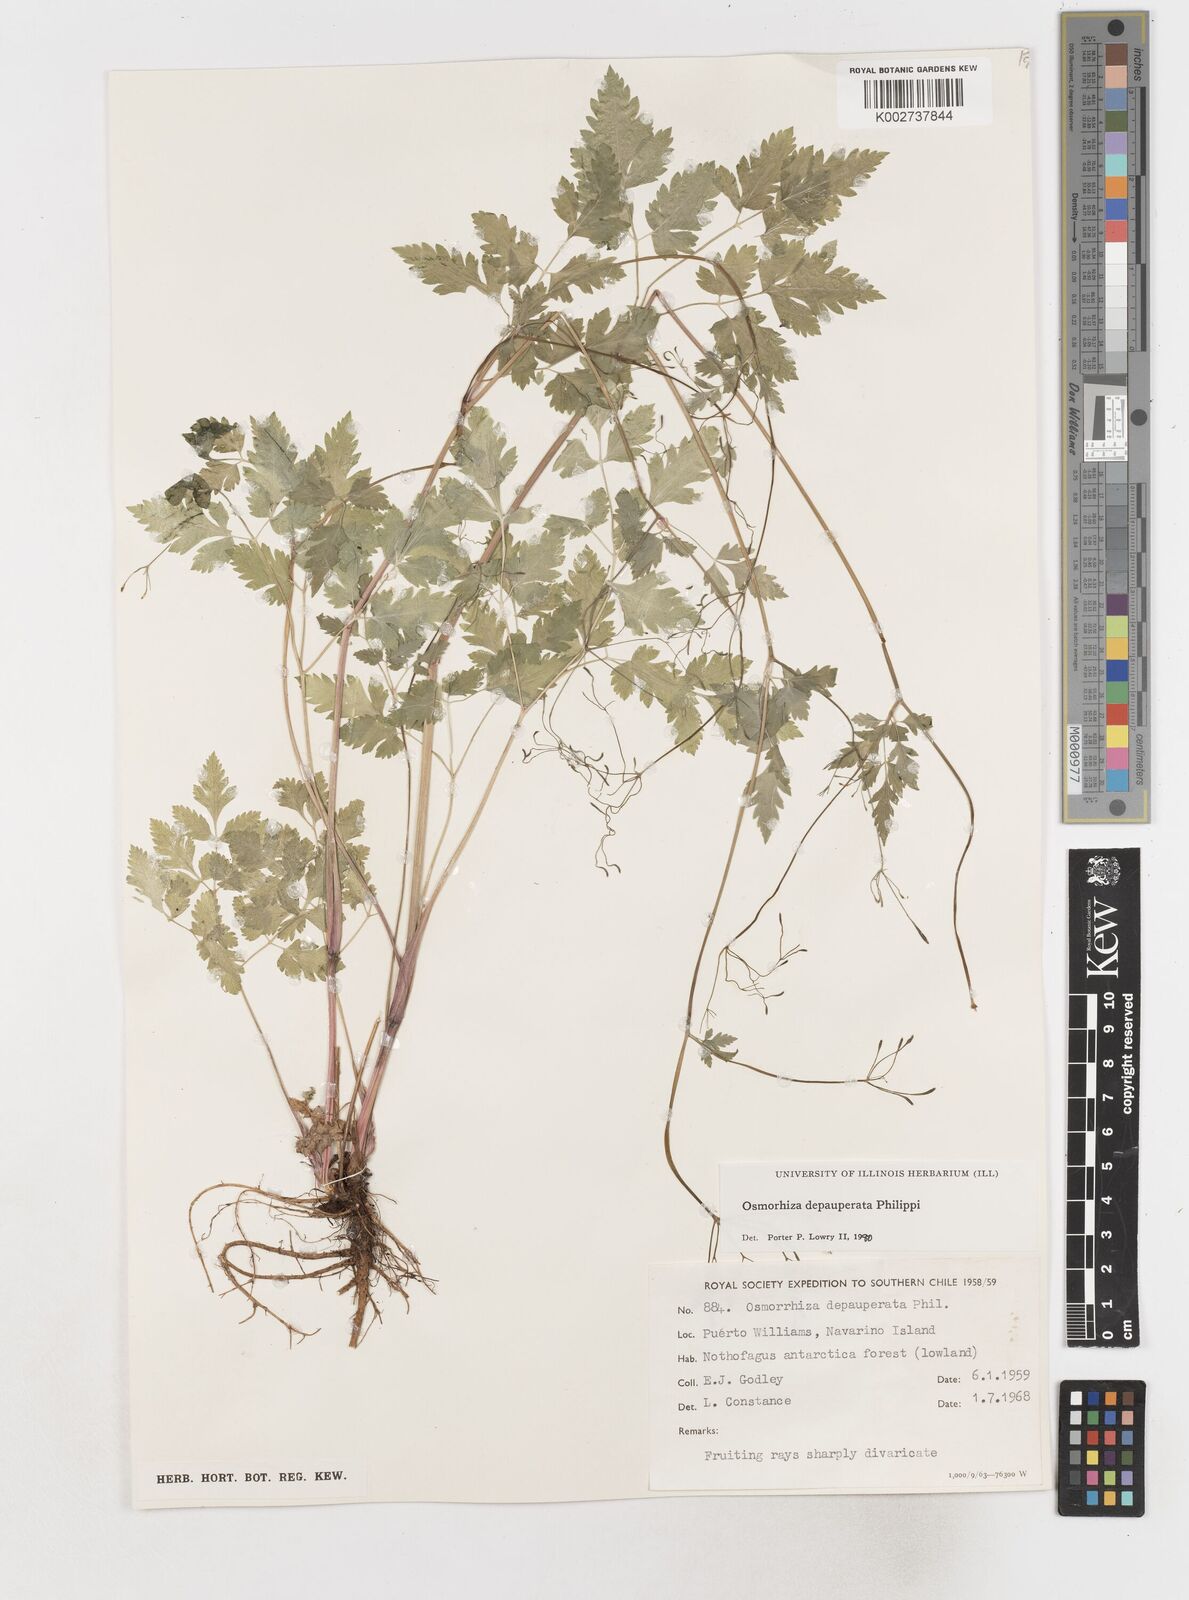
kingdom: Plantae
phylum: Tracheophyta
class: Magnoliopsida
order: Apiales
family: Apiaceae
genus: Osmorhiza
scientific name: Osmorhiza depauperata
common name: Blunt sweet cicely
